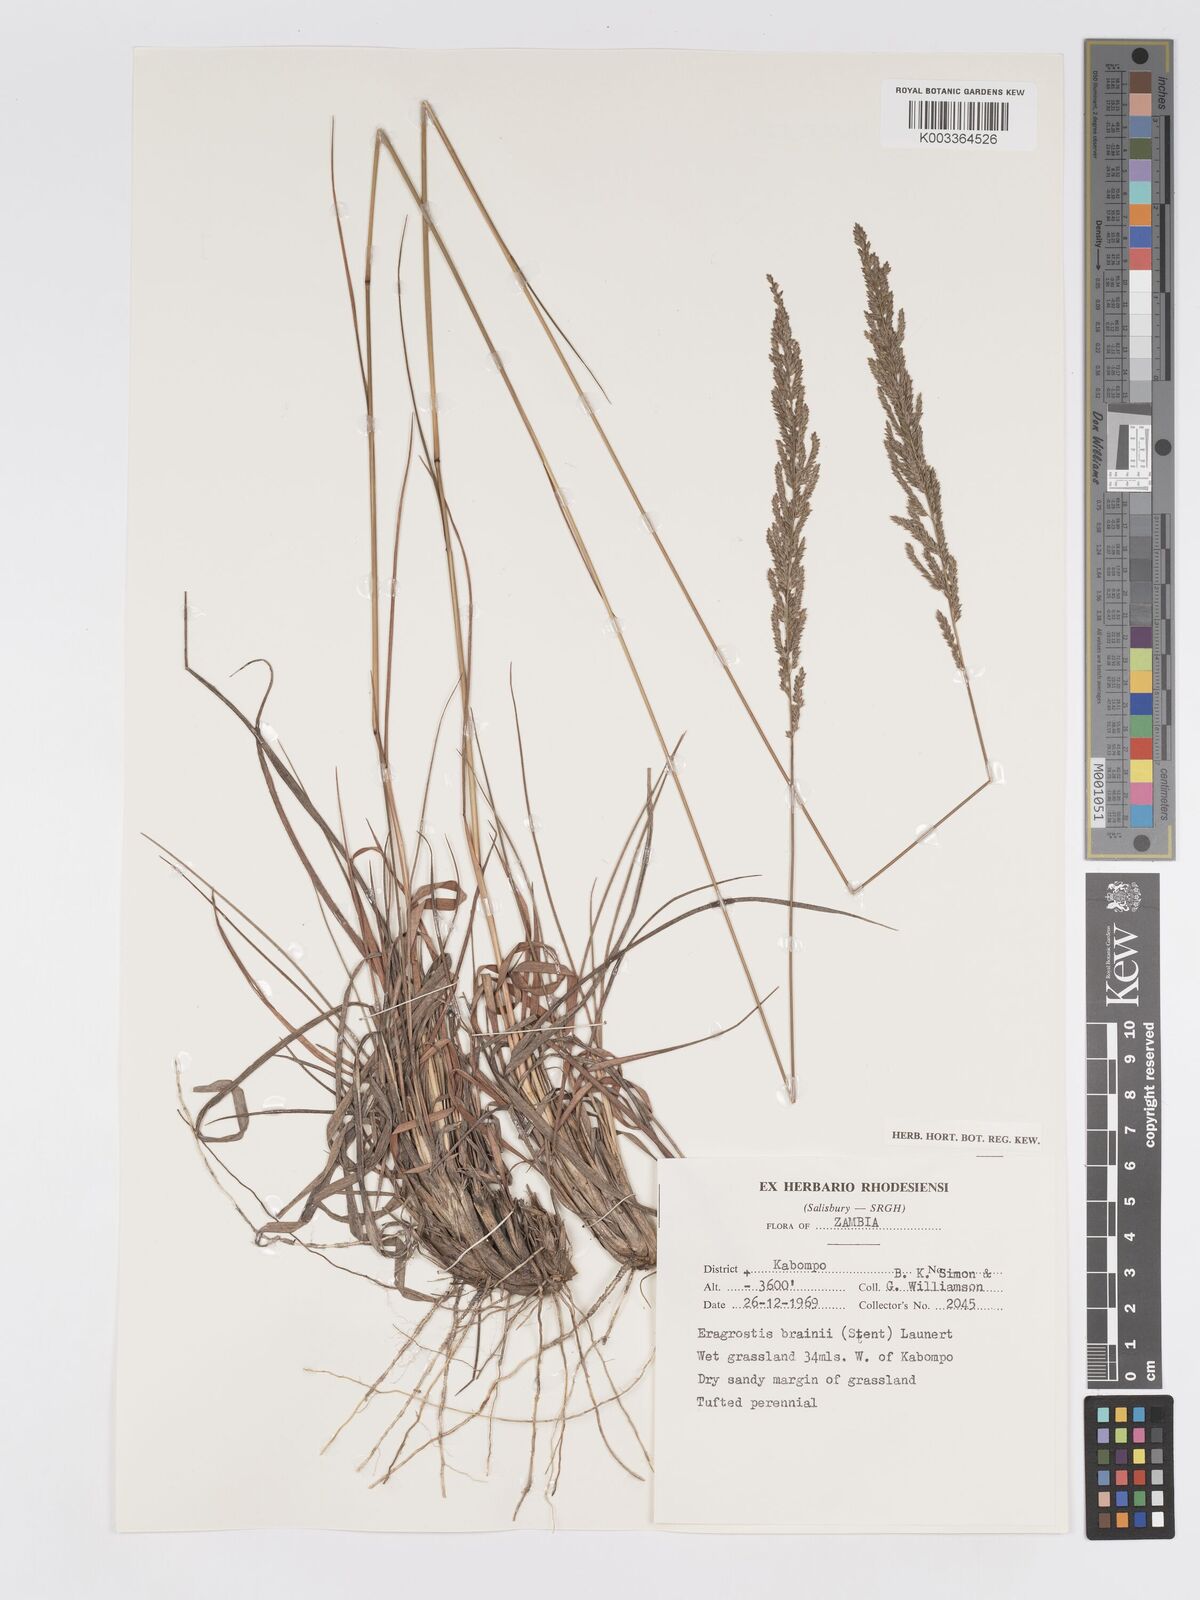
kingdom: Plantae
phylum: Tracheophyta
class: Liliopsida
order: Poales
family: Poaceae
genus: Eragrostis
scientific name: Eragrostis brainii
